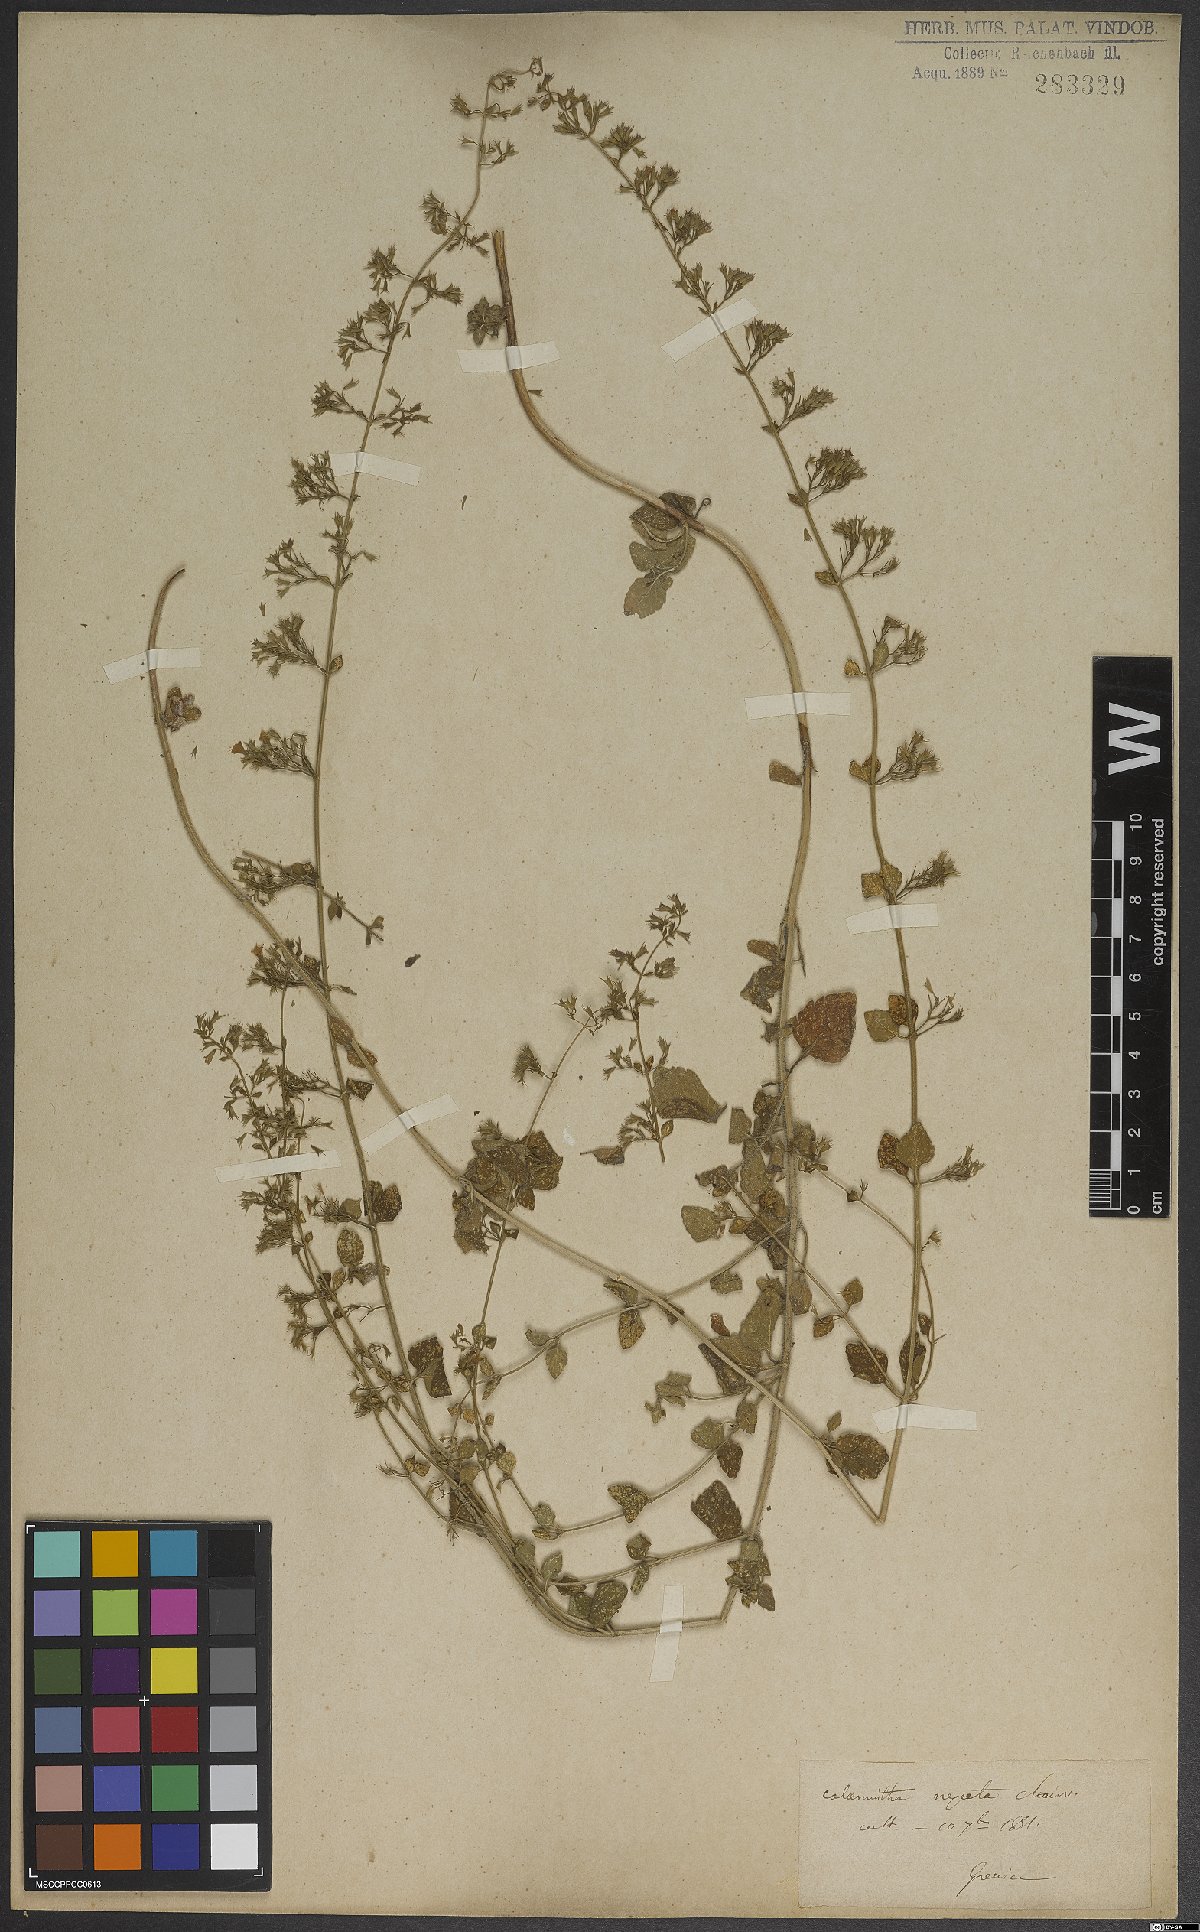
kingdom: Plantae
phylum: Tracheophyta
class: Magnoliopsida
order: Lamiales
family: Lamiaceae
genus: Clinopodium
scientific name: Clinopodium nepeta
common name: Lesser calamint
